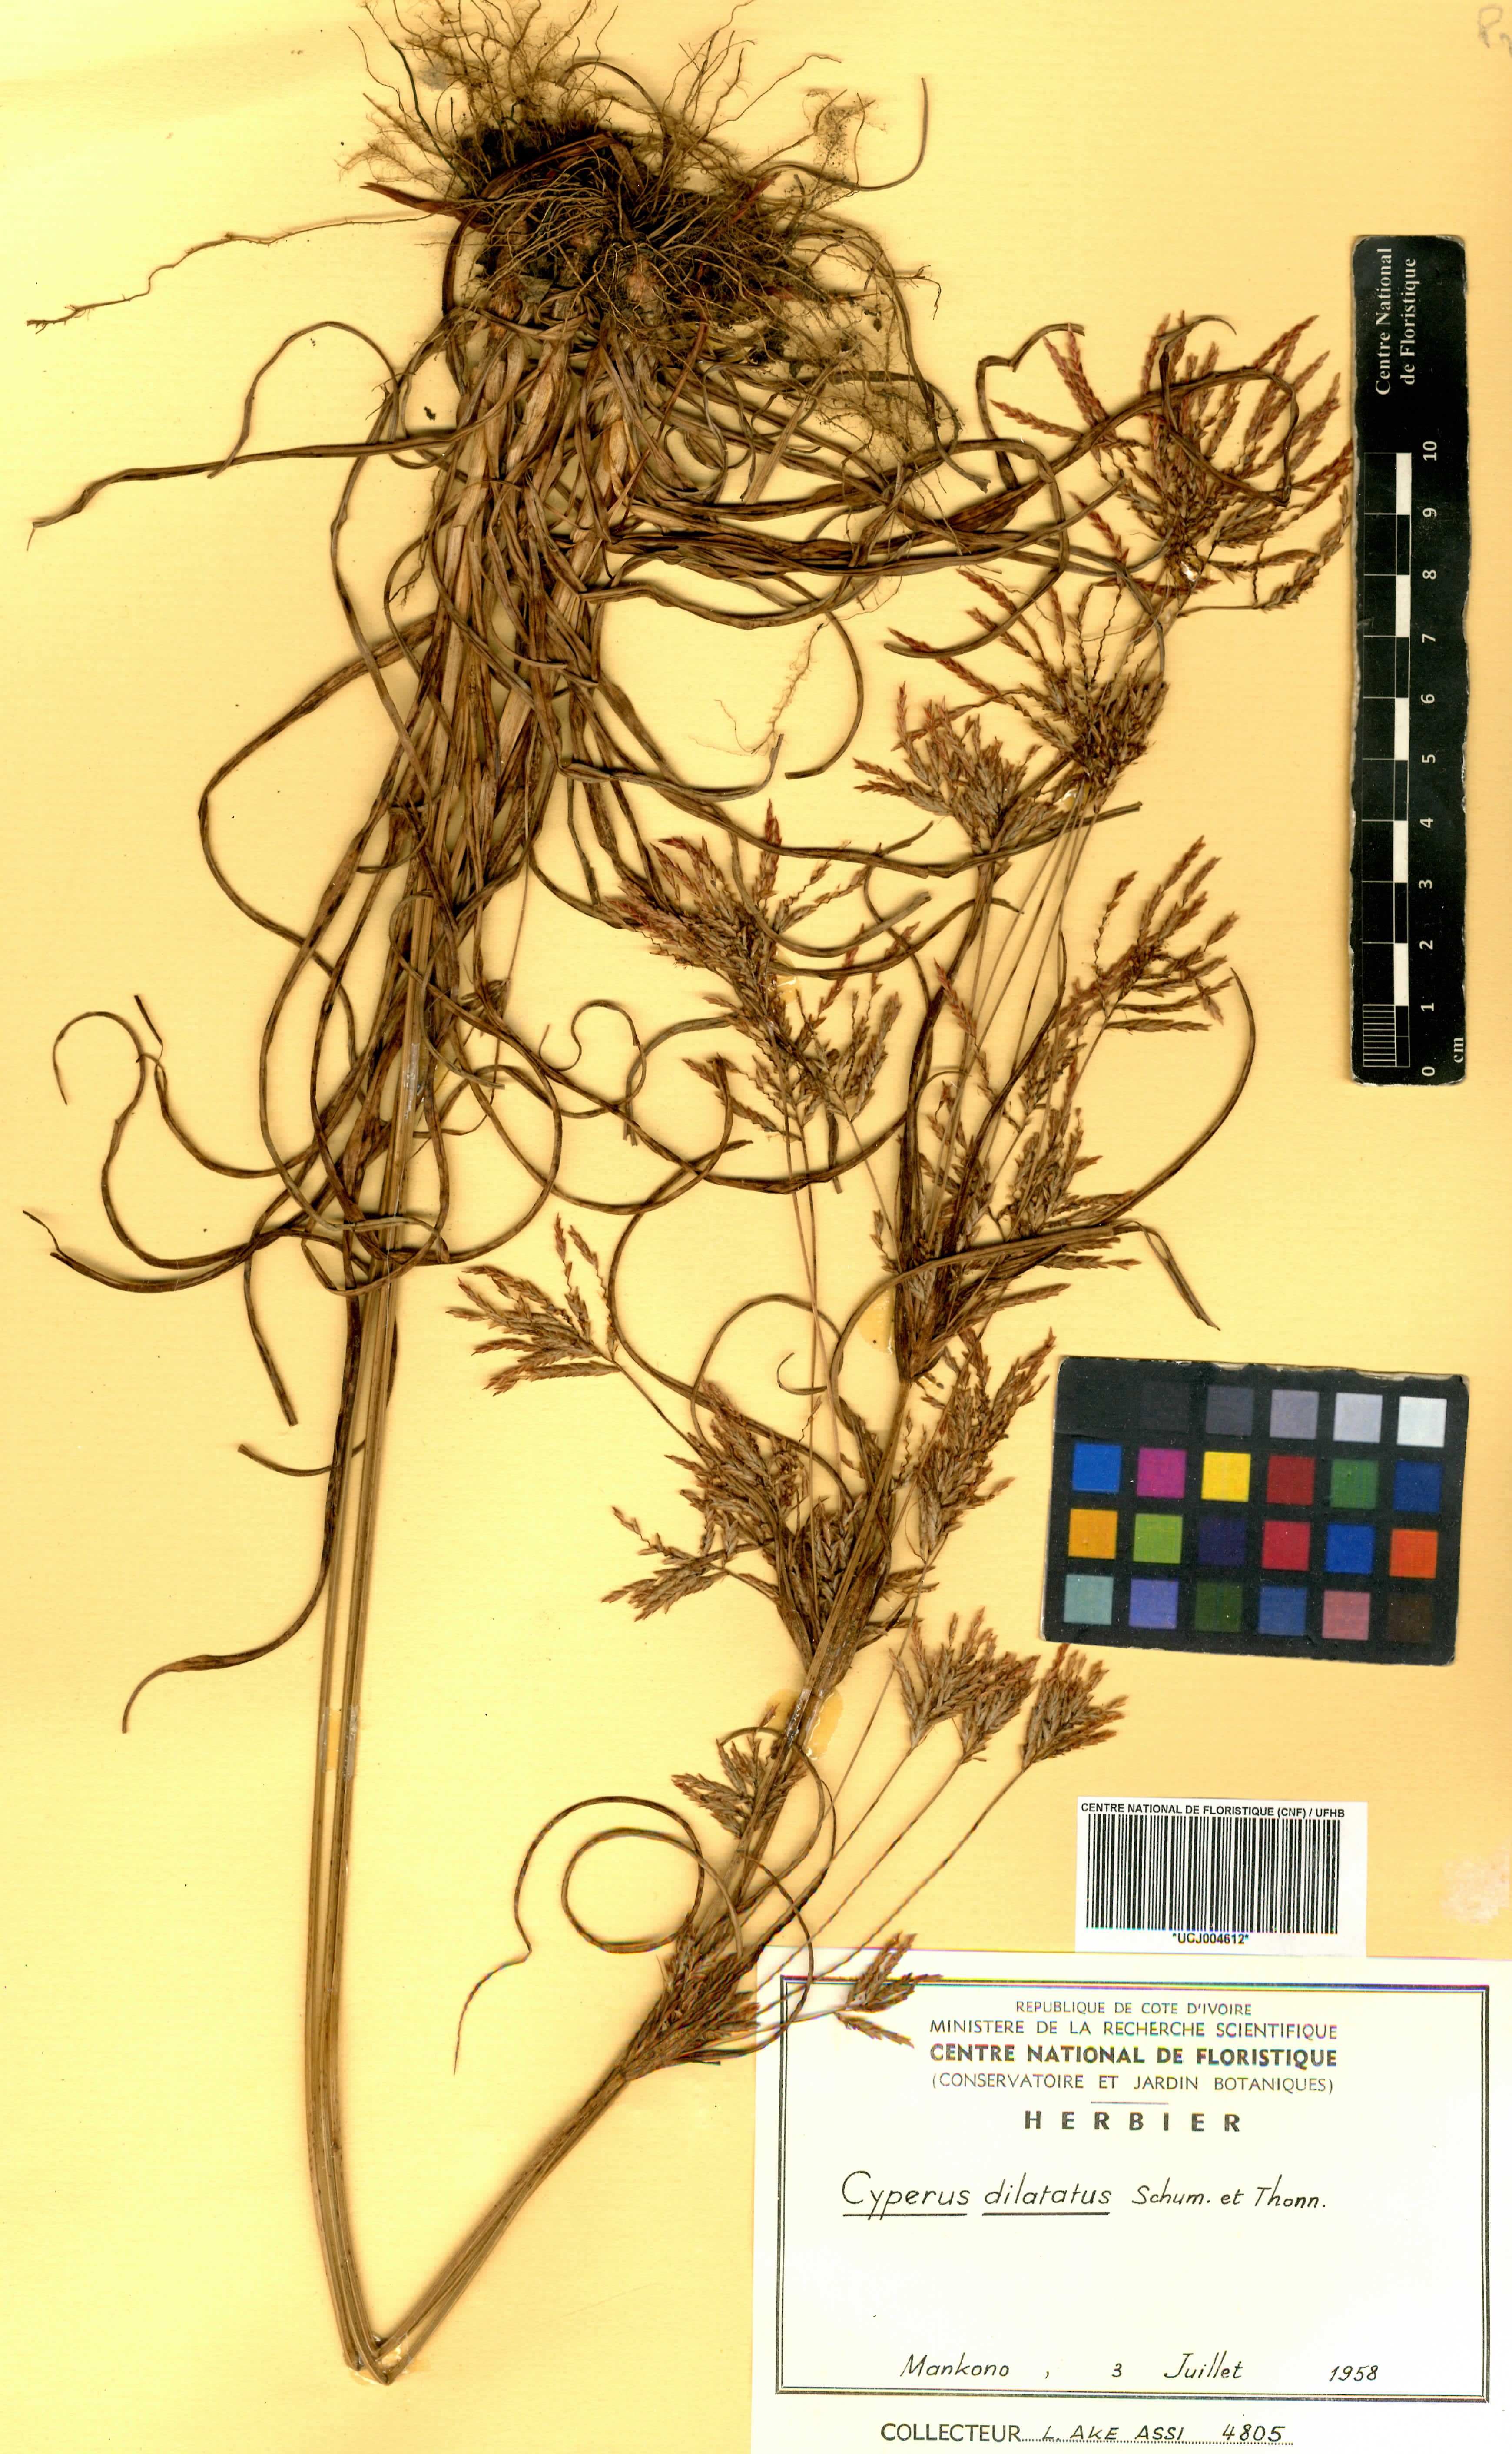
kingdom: Plantae
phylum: Tracheophyta
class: Liliopsida
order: Poales
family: Cyperaceae
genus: Cyperus
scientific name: Cyperus dilatatus
